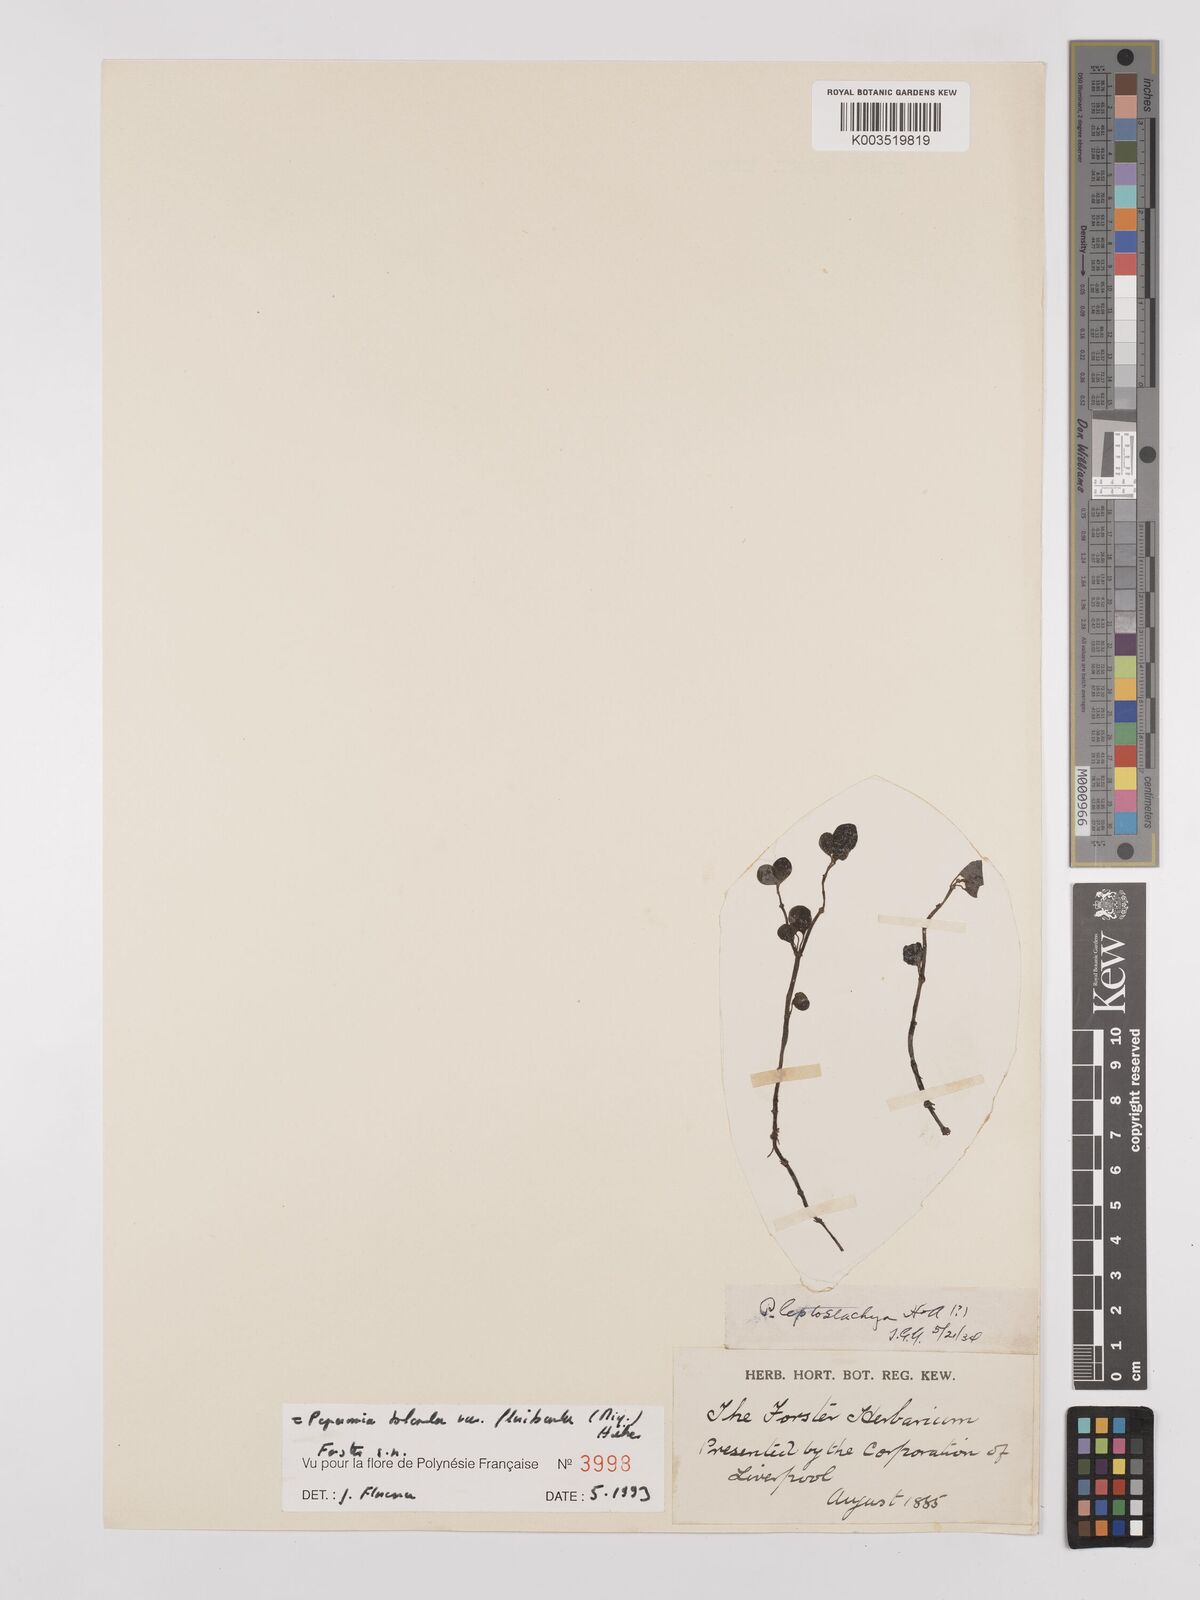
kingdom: Plantae
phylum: Tracheophyta
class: Magnoliopsida
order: Piperales
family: Piperaceae
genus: Peperomia
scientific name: Peperomia leptostachya
